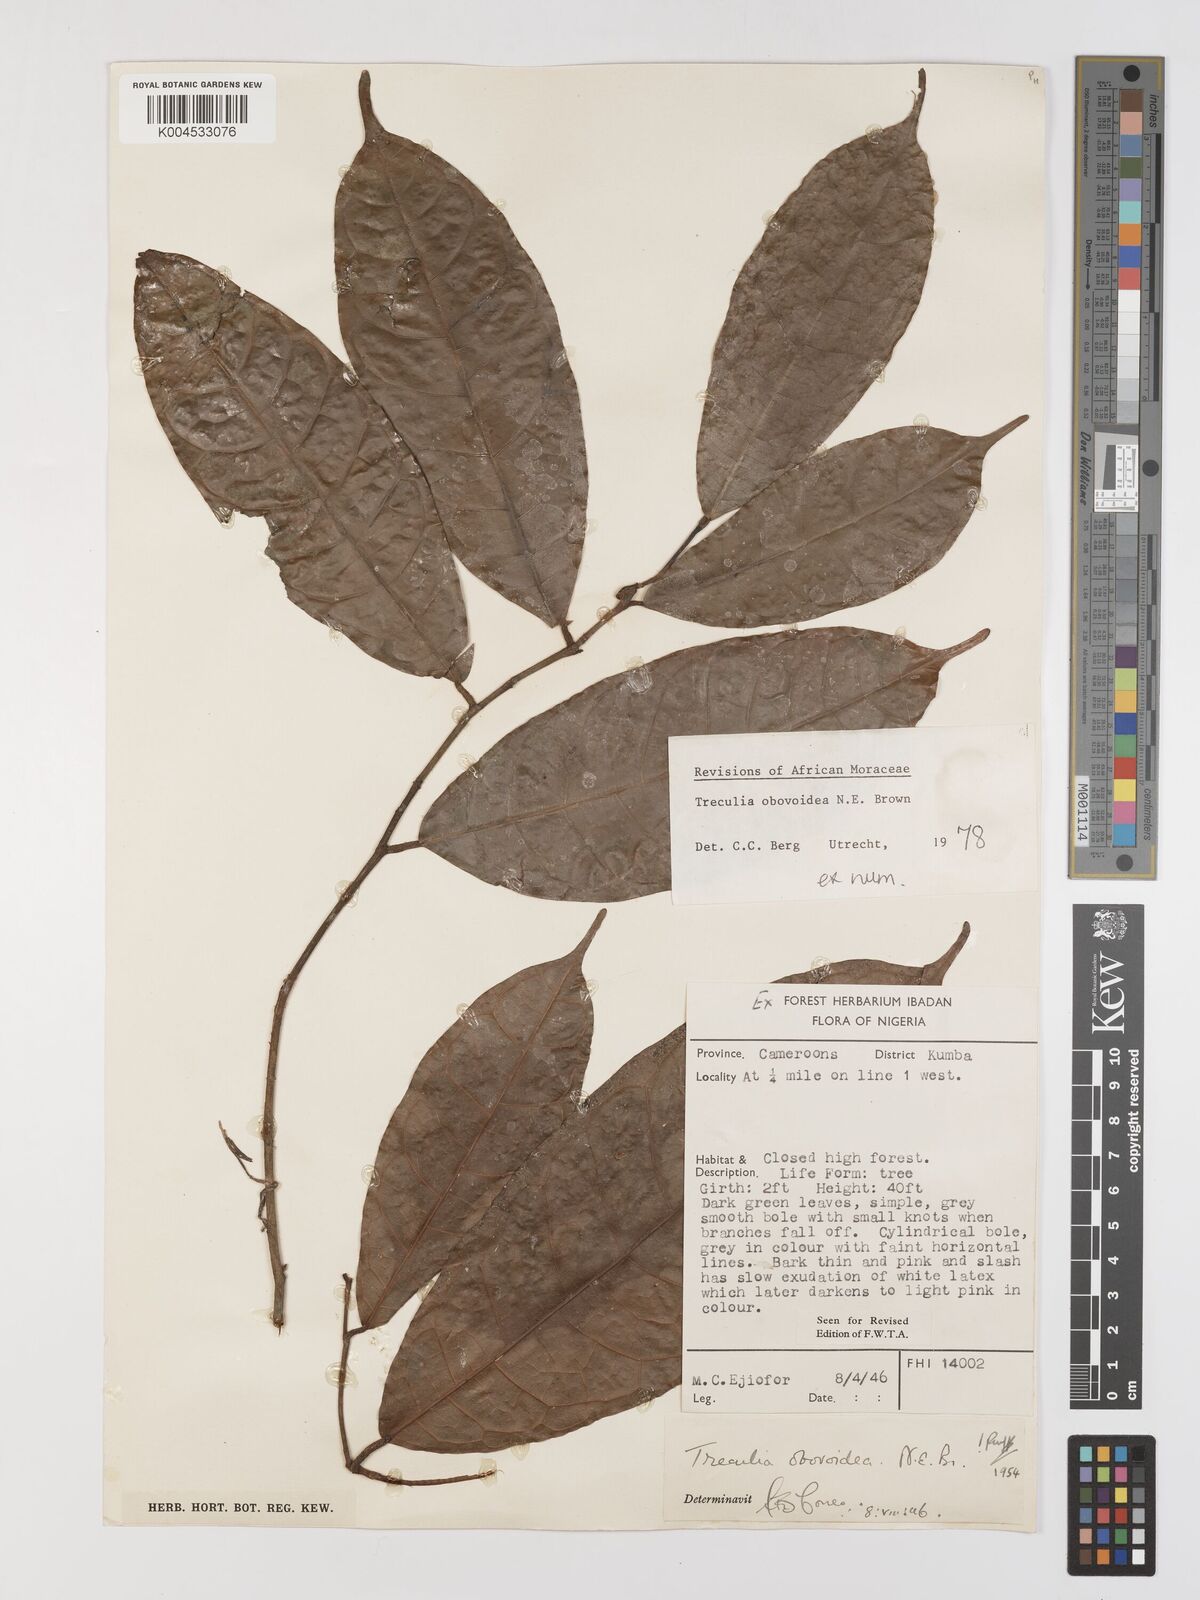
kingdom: Plantae
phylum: Tracheophyta
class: Magnoliopsida
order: Rosales
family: Moraceae
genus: Treculia
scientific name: Treculia obovoidea
